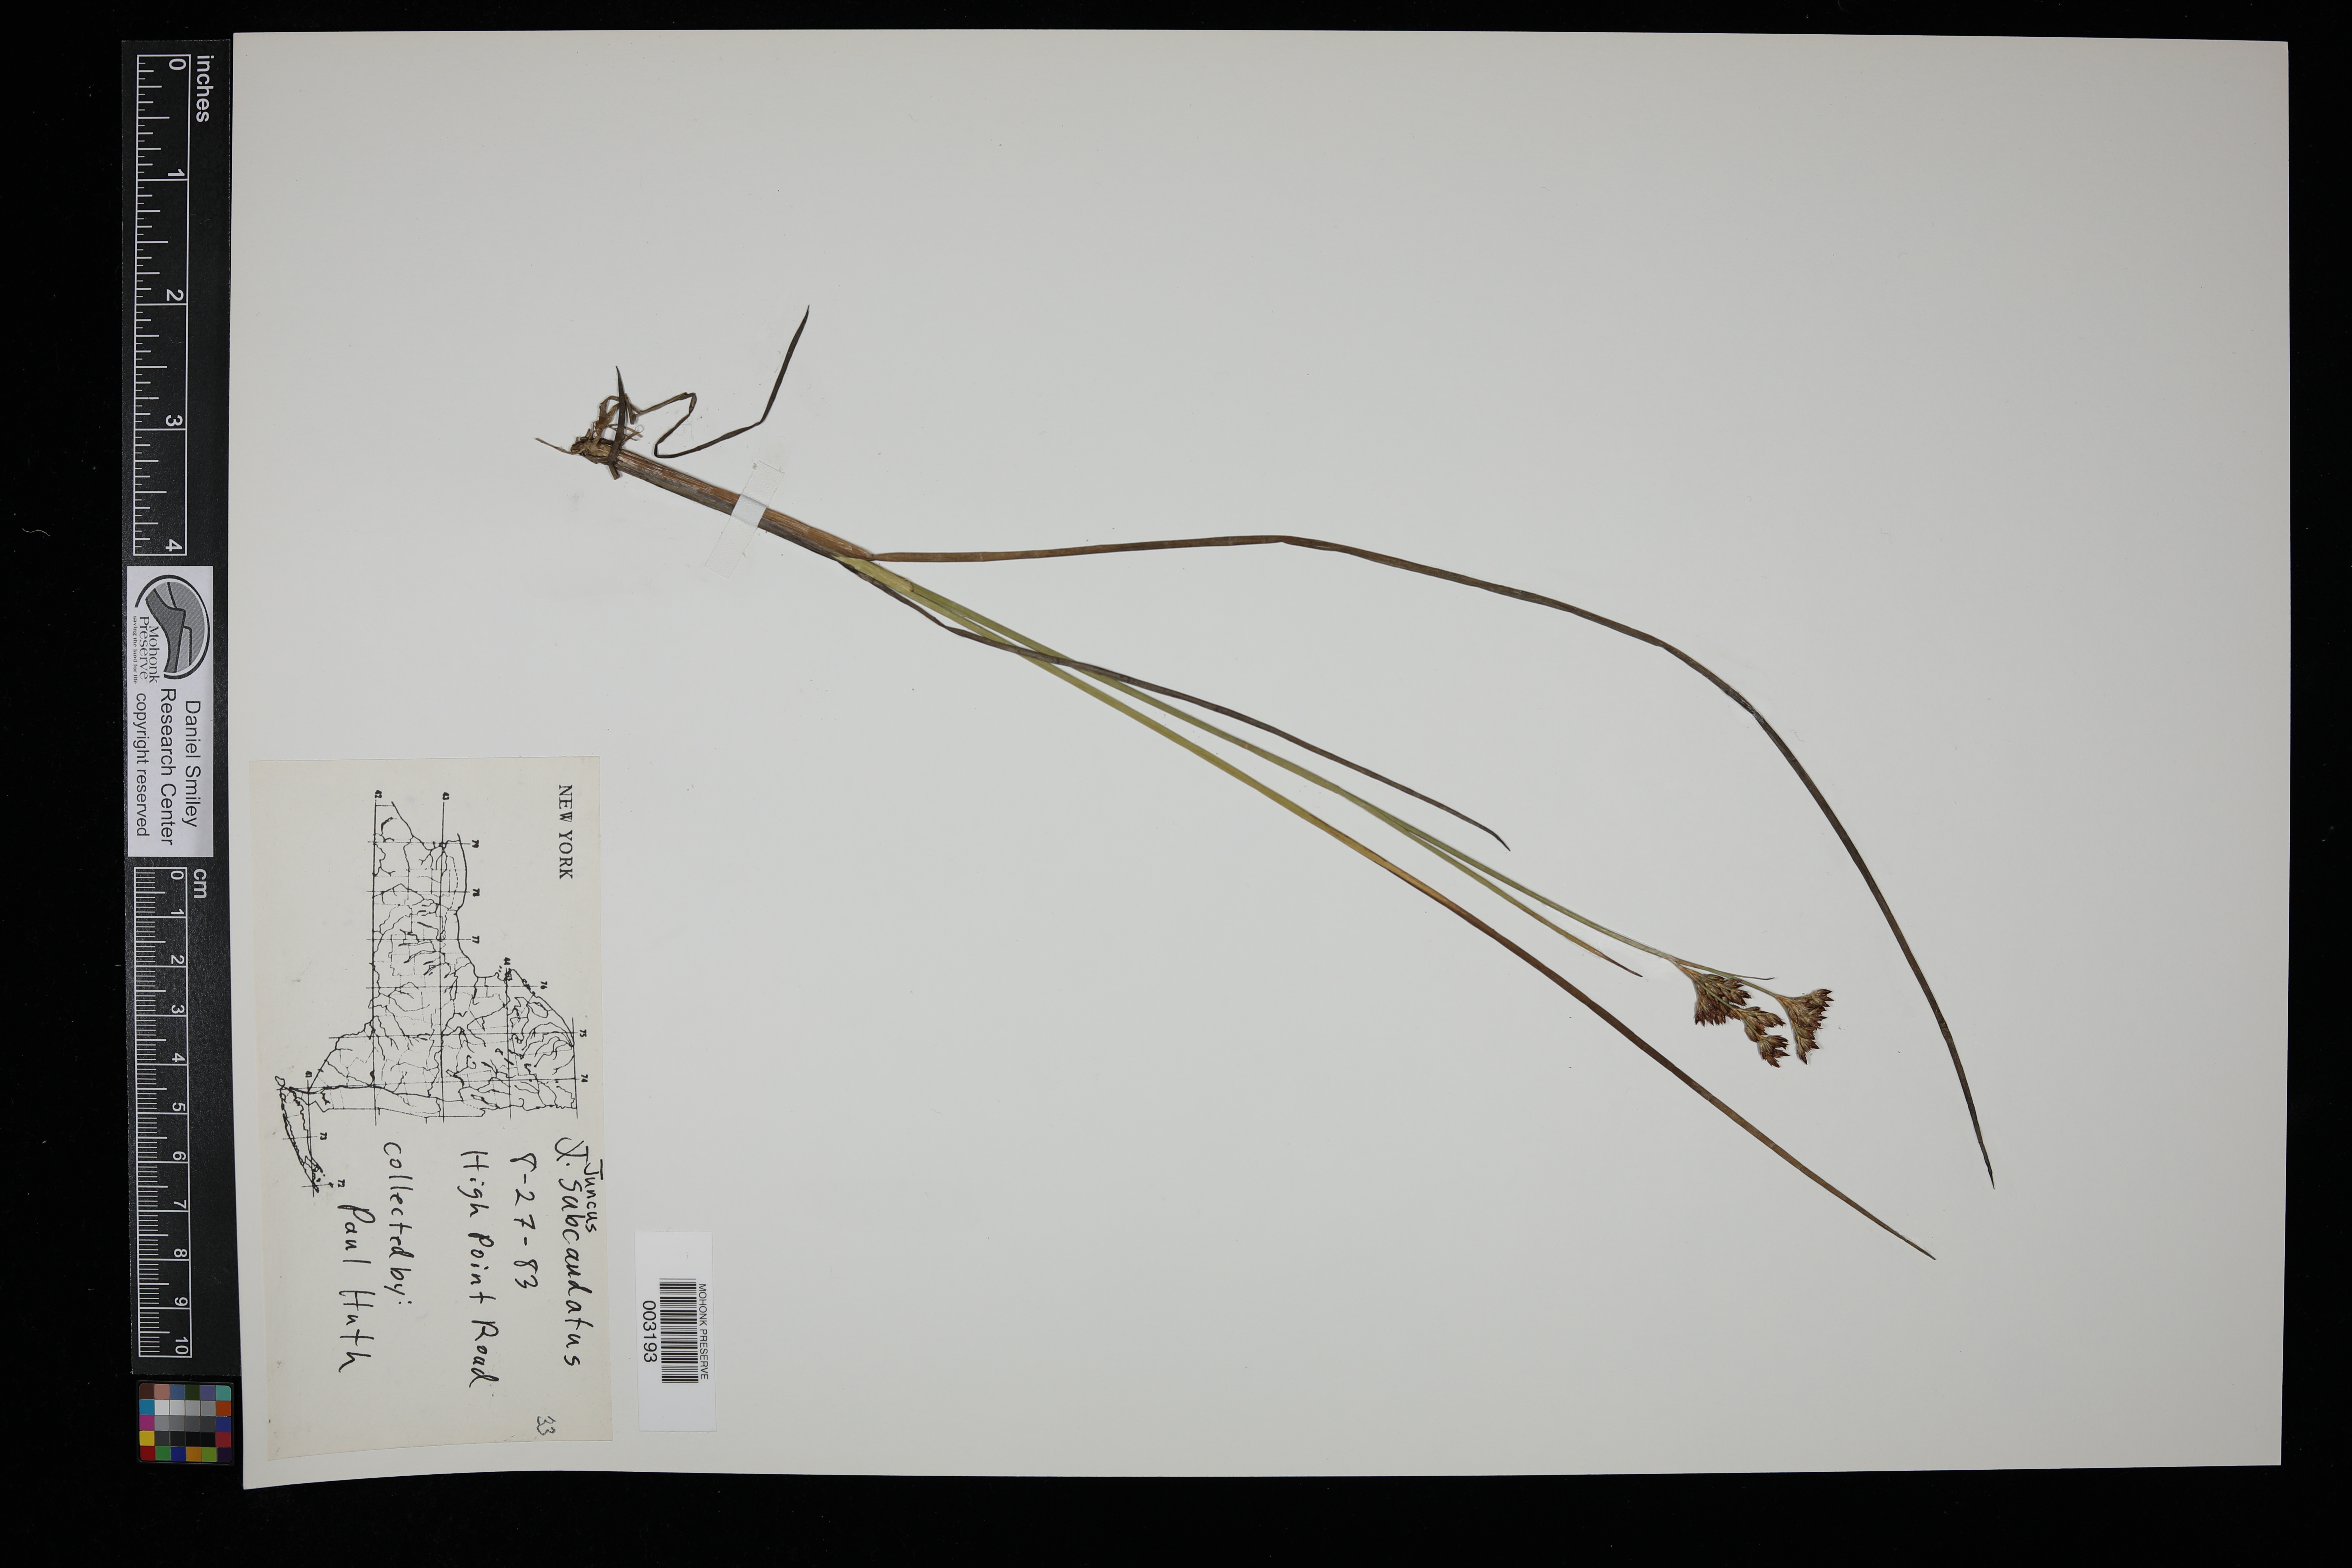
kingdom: Plantae
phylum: Tracheophyta
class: Liliopsida
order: Poales
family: Juncaceae
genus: Juncus
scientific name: Juncus subcaudatus
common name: Engelmann's rush
